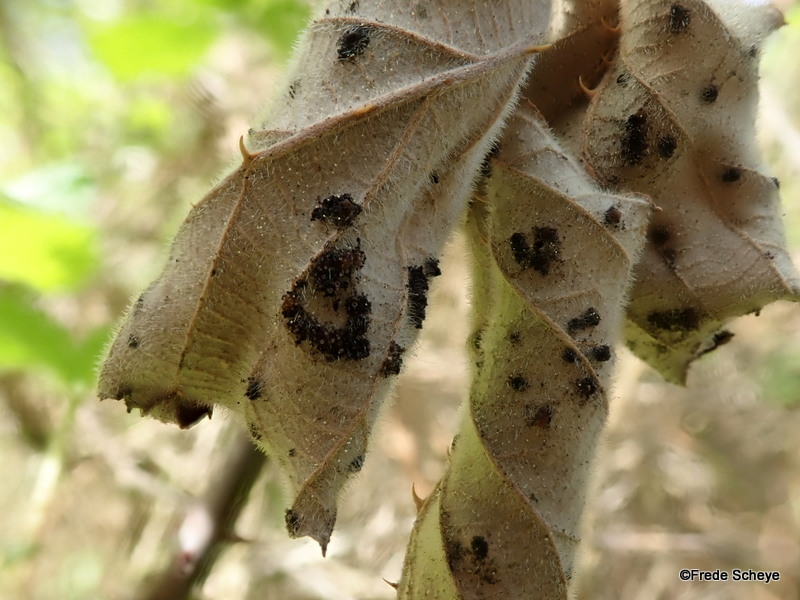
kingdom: Fungi
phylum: Basidiomycota
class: Pucciniomycetes
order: Pucciniales
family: Phragmidiaceae
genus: Phragmidium
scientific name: Phragmidium violaceum
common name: violet flercellerust
